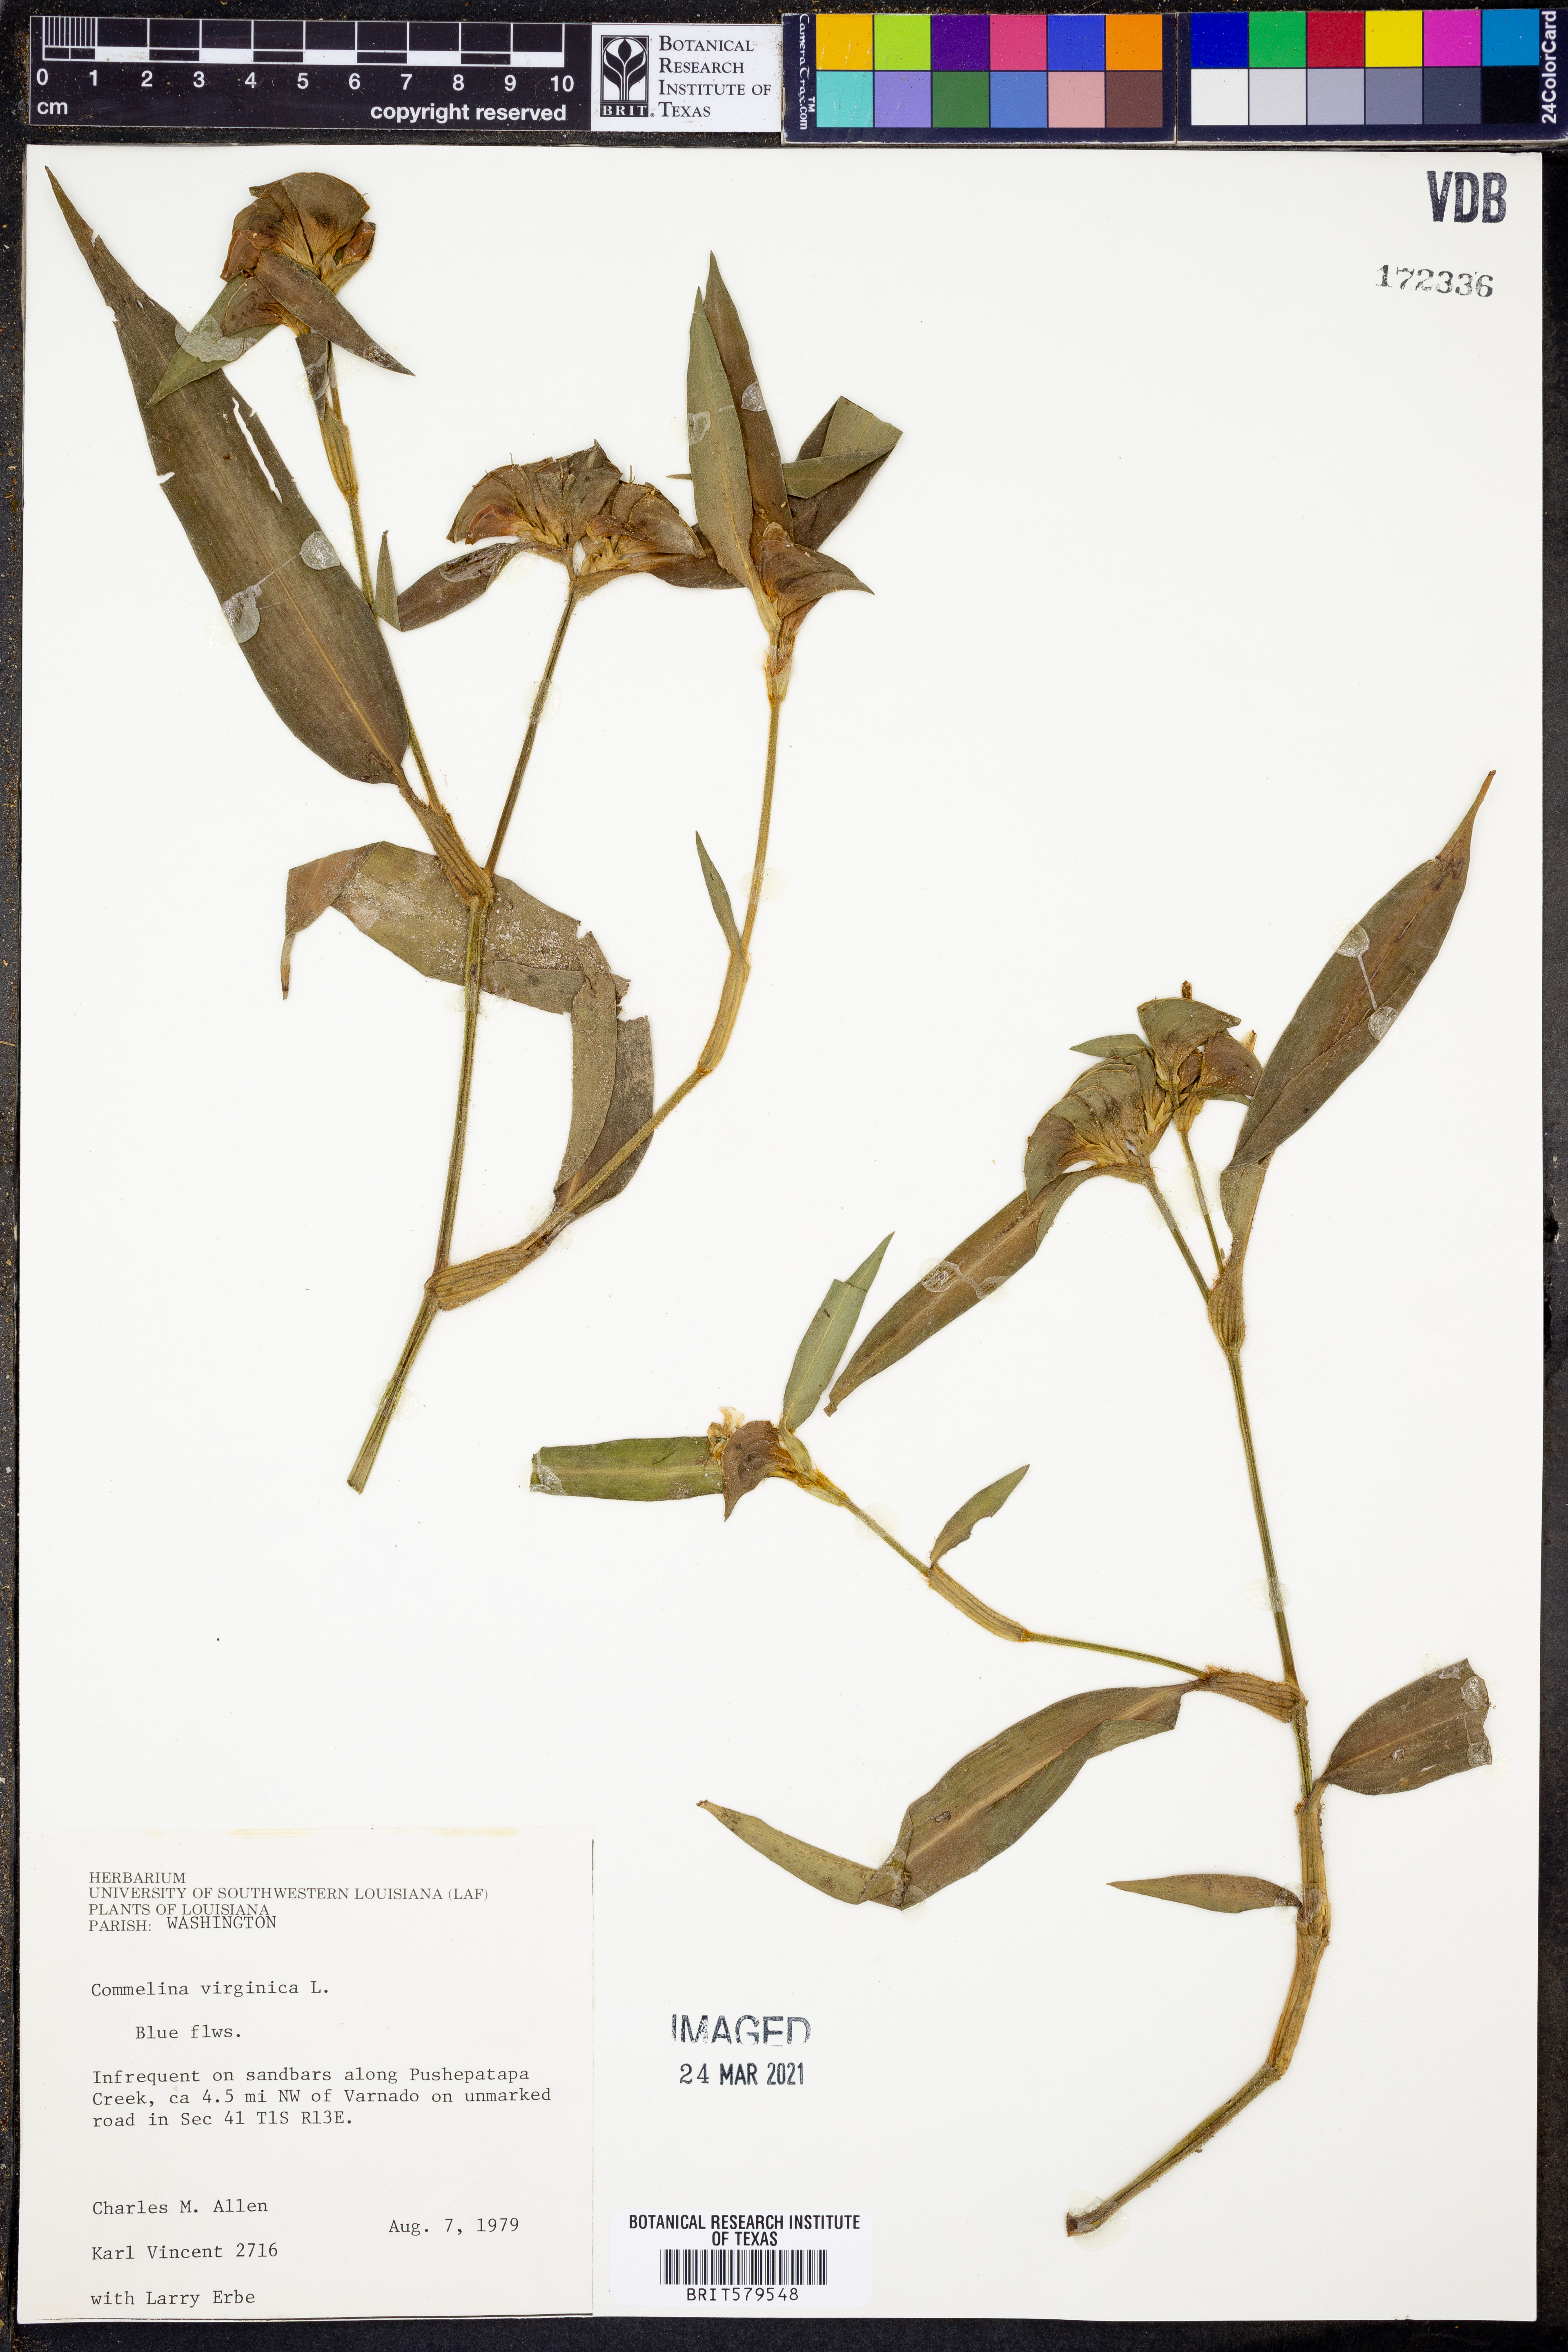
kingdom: Plantae
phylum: Tracheophyta
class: Liliopsida
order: Commelinales
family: Commelinaceae
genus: Commelina
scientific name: Commelina virginica
